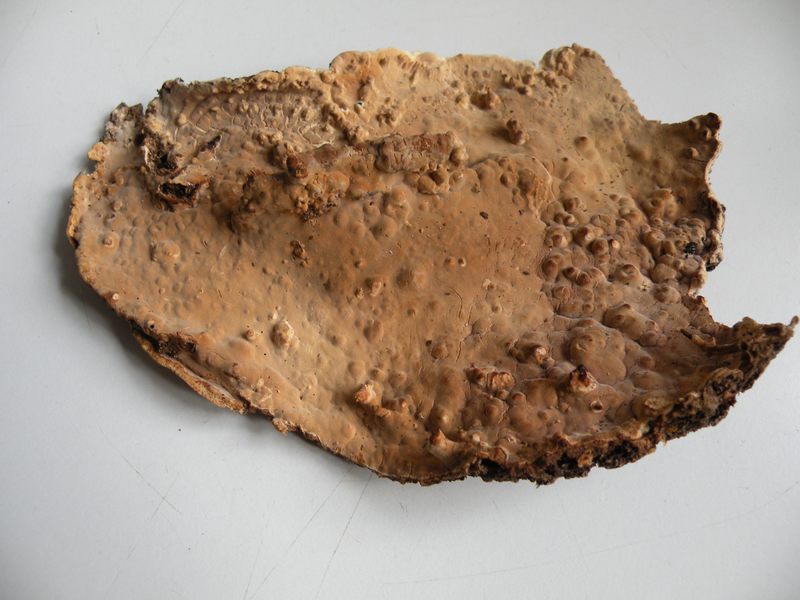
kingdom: Fungi
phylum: Basidiomycota
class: Agaricomycetes
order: Polyporales
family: Dacryobolaceae
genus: Dacryobolus
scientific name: Dacryobolus karstenii
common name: glat vulkanskorpe
